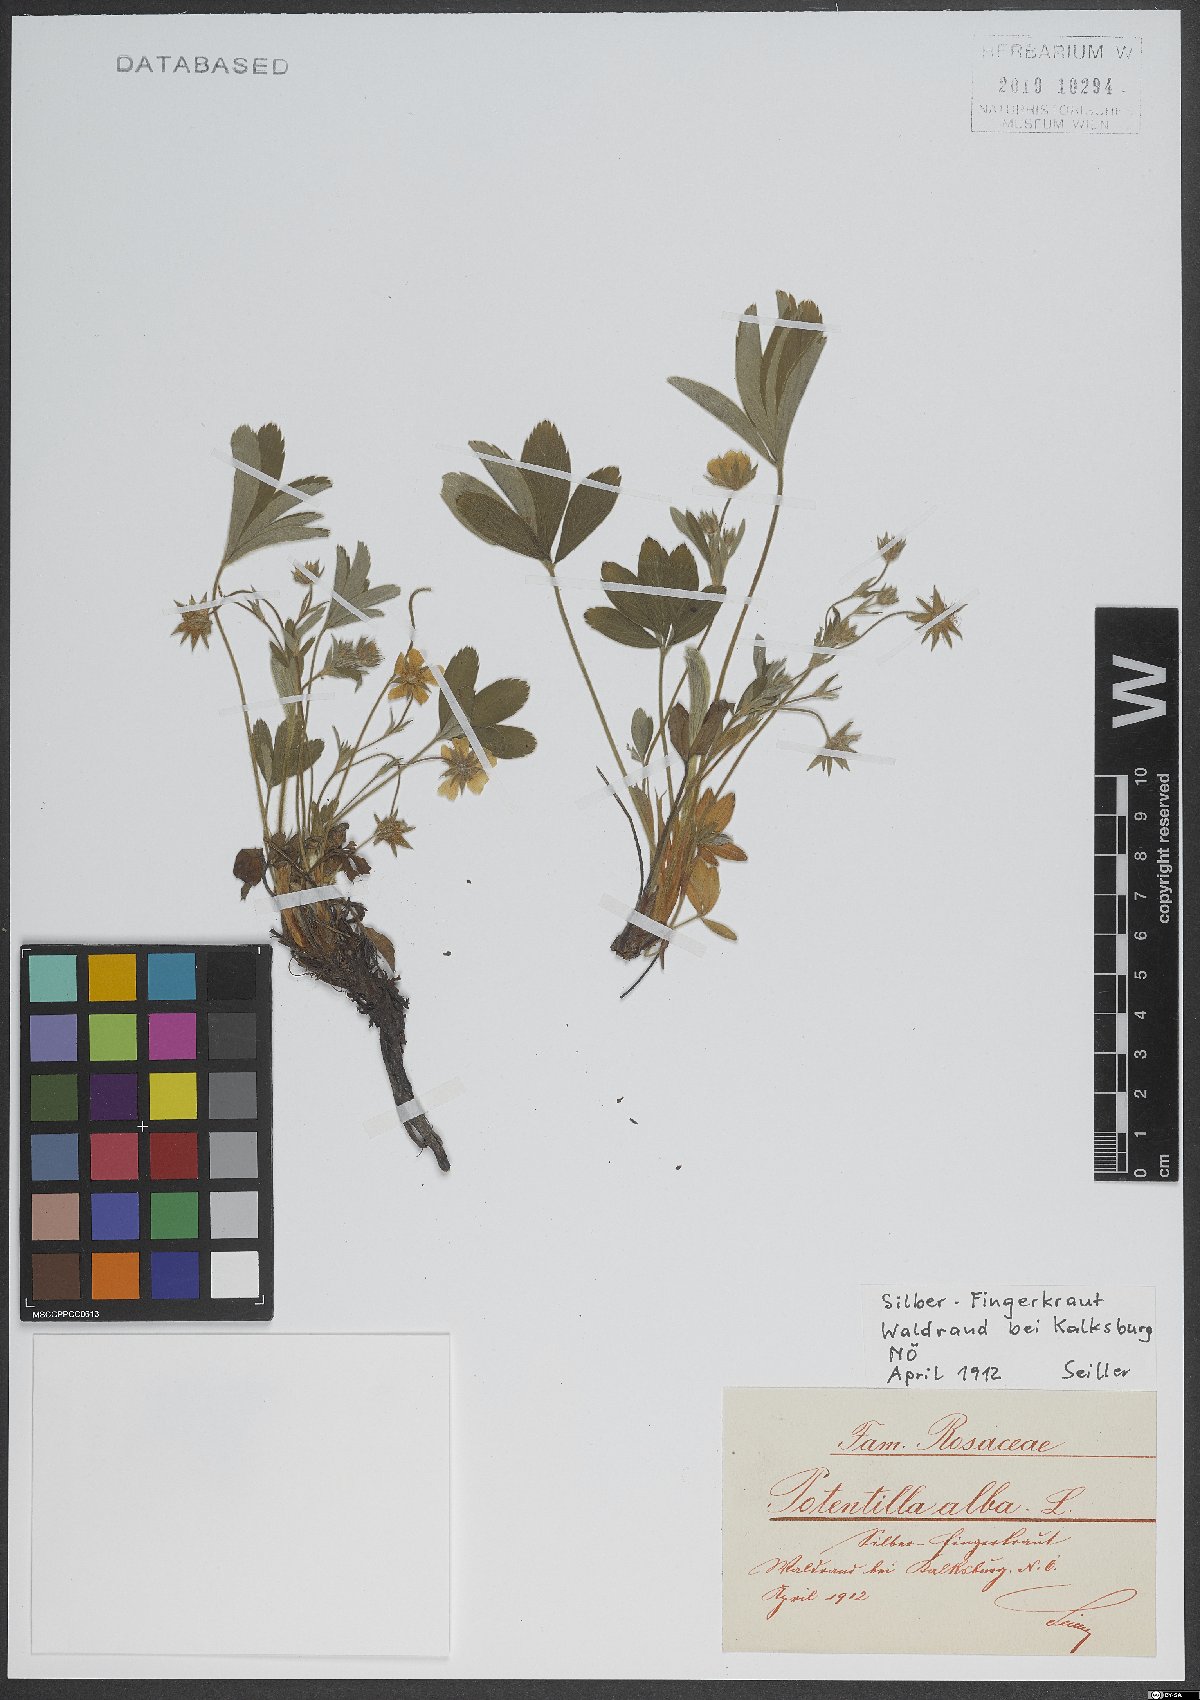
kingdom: Plantae
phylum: Tracheophyta
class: Magnoliopsida
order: Rosales
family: Rosaceae
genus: Potentilla
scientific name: Potentilla alba
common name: White cinquefoil
